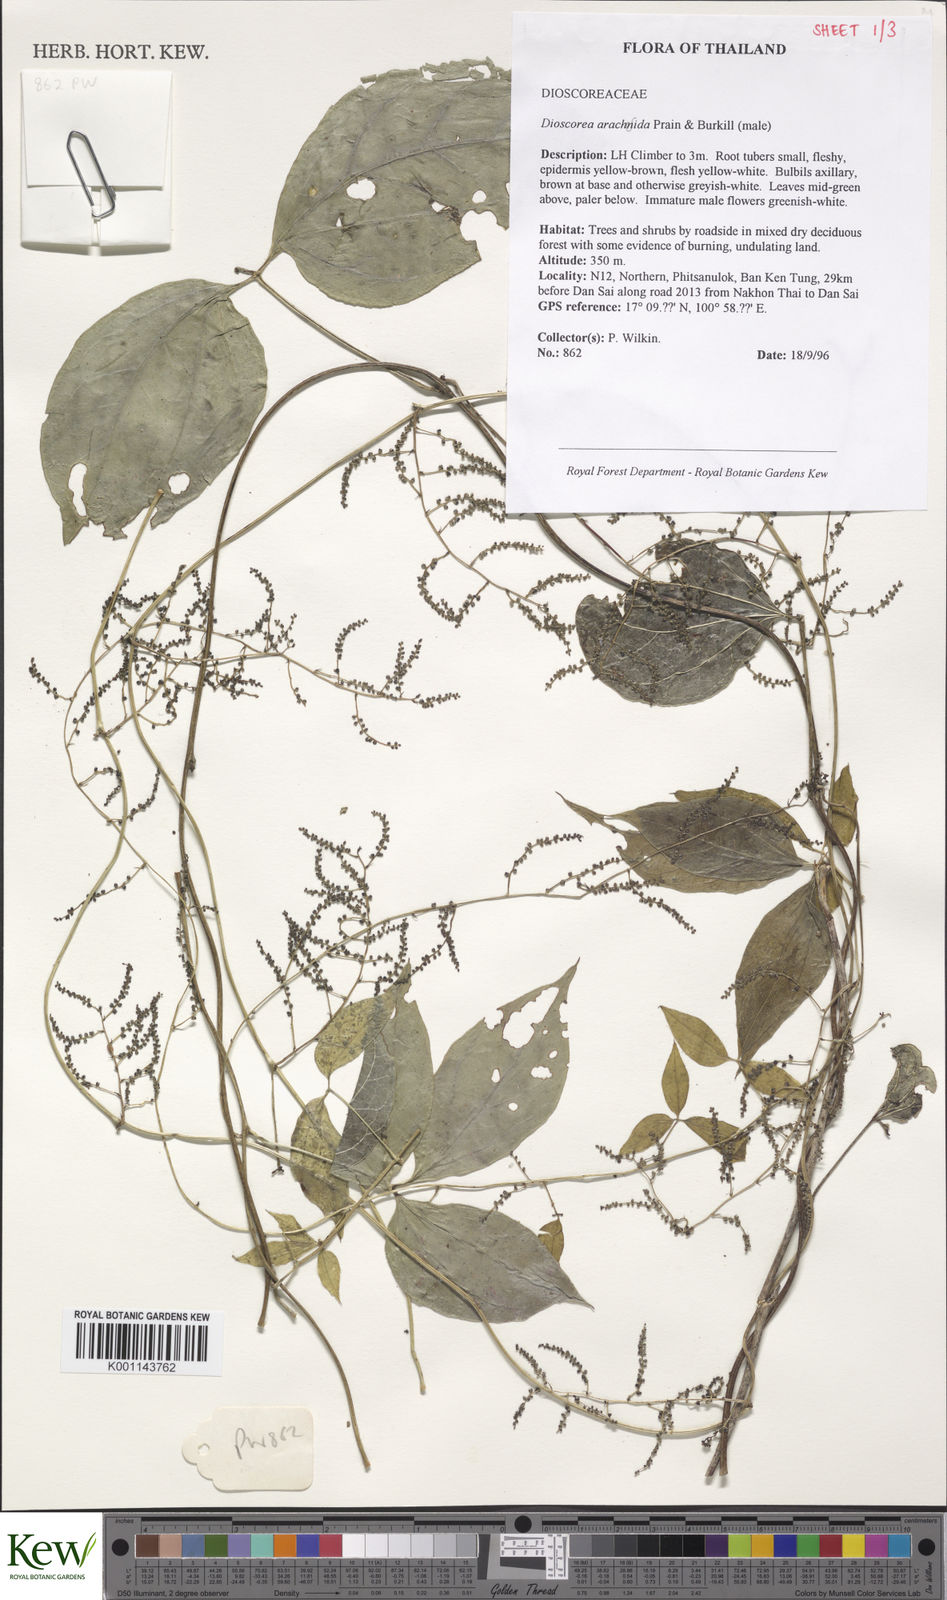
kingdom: Plantae
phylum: Tracheophyta
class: Liliopsida
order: Dioscoreales
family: Dioscoreaceae
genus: Dioscorea
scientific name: Dioscorea arachidna
